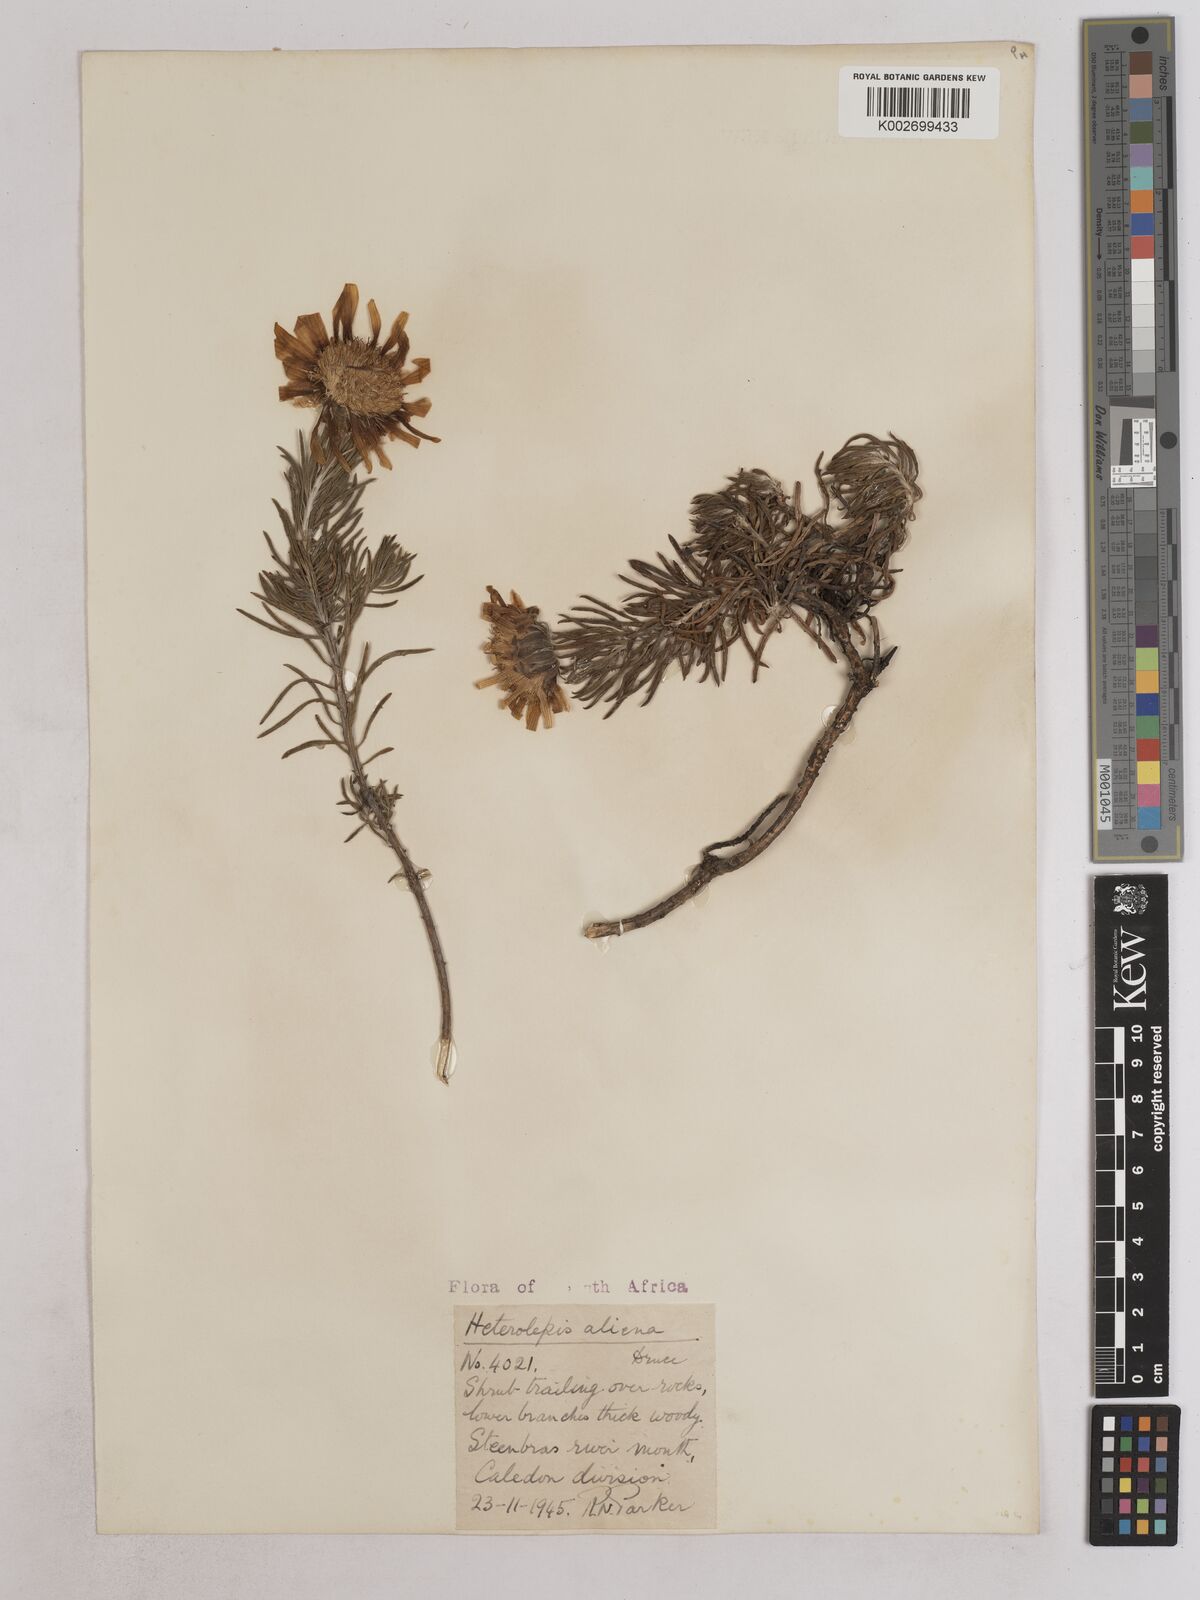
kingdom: Plantae
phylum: Tracheophyta
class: Magnoliopsida
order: Asterales
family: Asteraceae
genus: Heterolepis
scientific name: Heterolepis aliena
